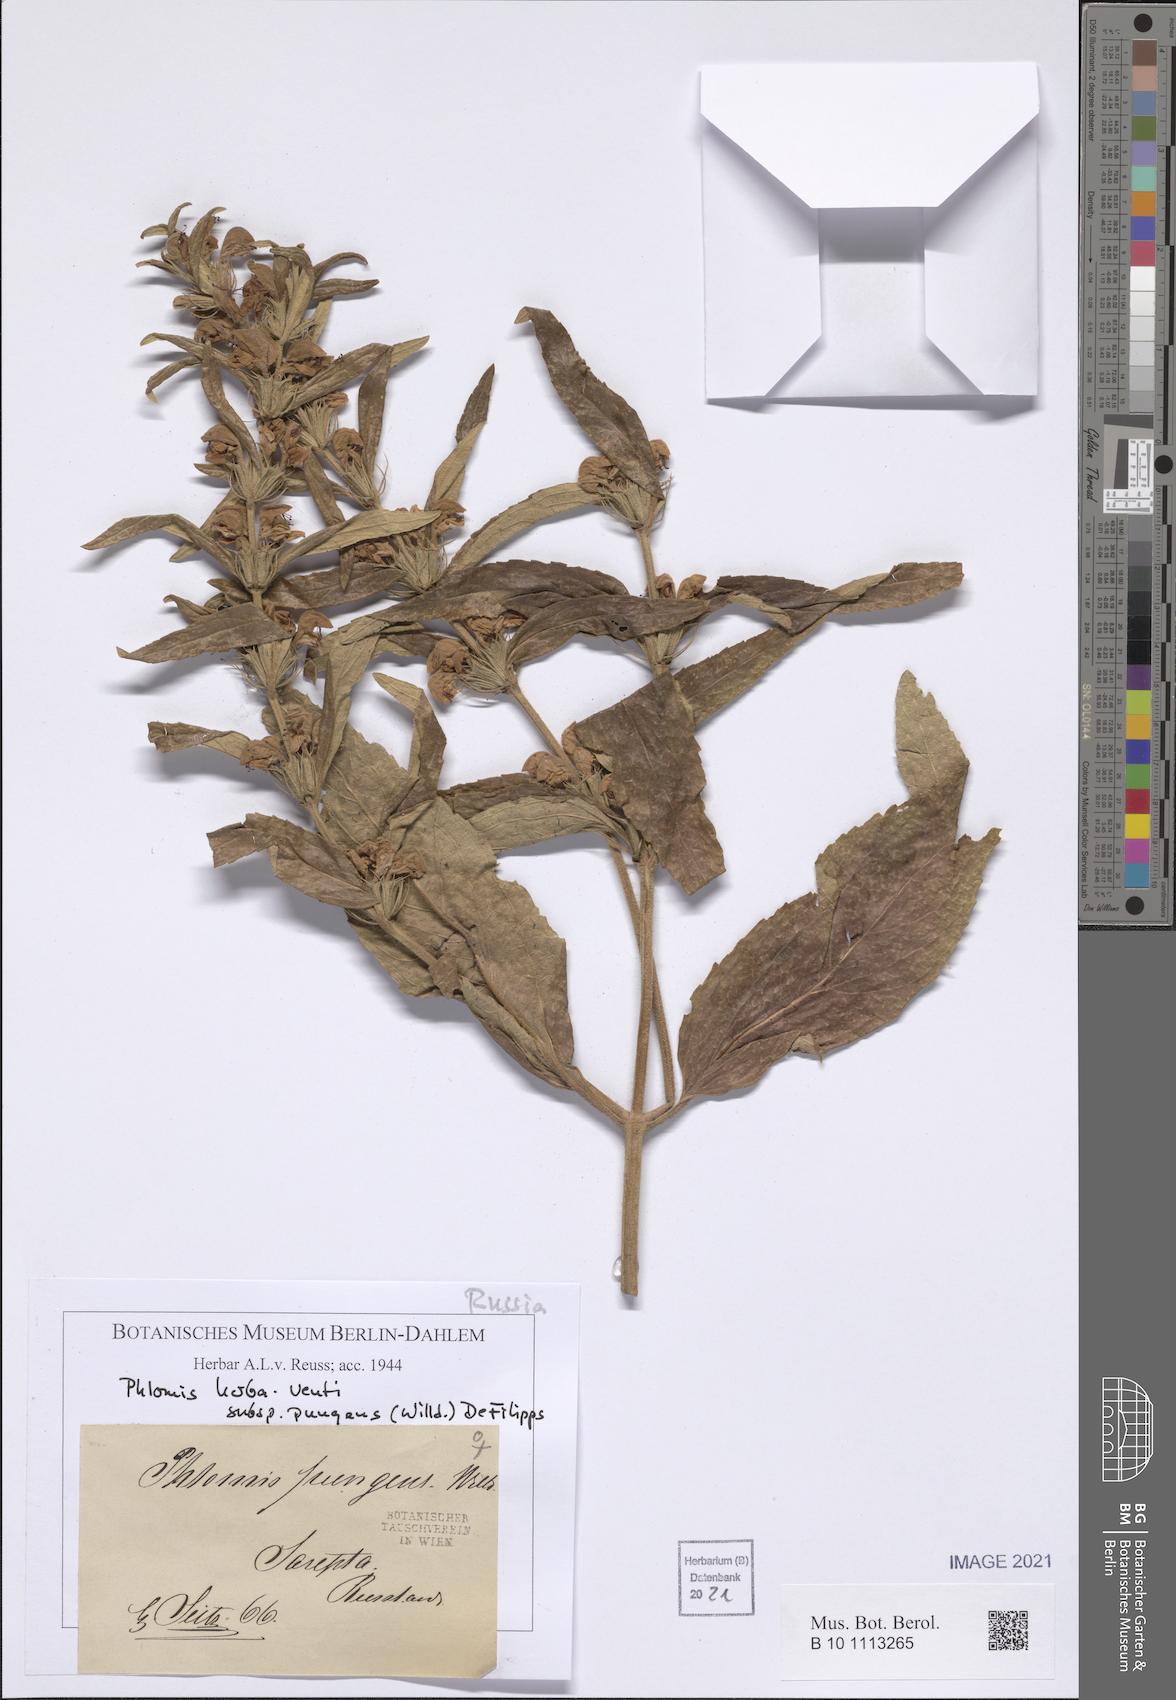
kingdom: Plantae
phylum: Tracheophyta
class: Magnoliopsida
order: Lamiales
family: Lamiaceae
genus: Phlomis
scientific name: Phlomis herba-venti
